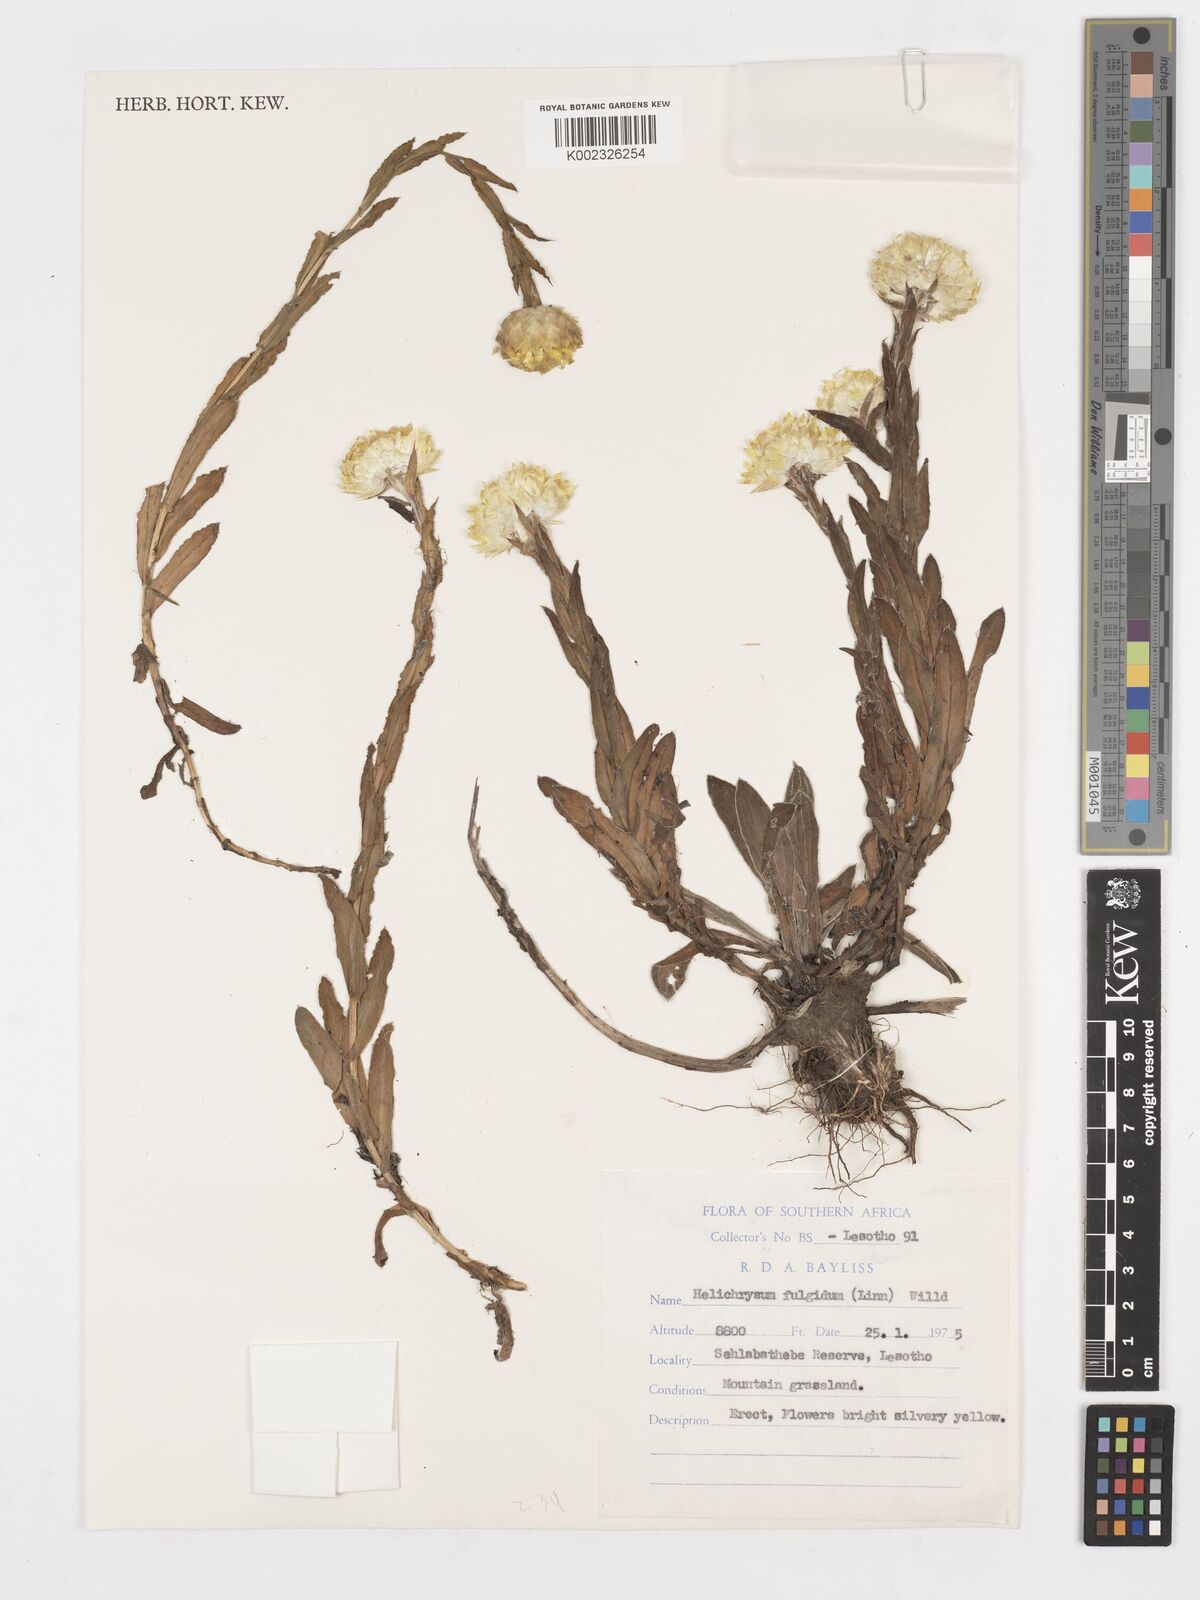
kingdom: Plantae
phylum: Tracheophyta
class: Magnoliopsida
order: Asterales
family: Asteraceae
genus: Helichrysum
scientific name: Helichrysum aureum
